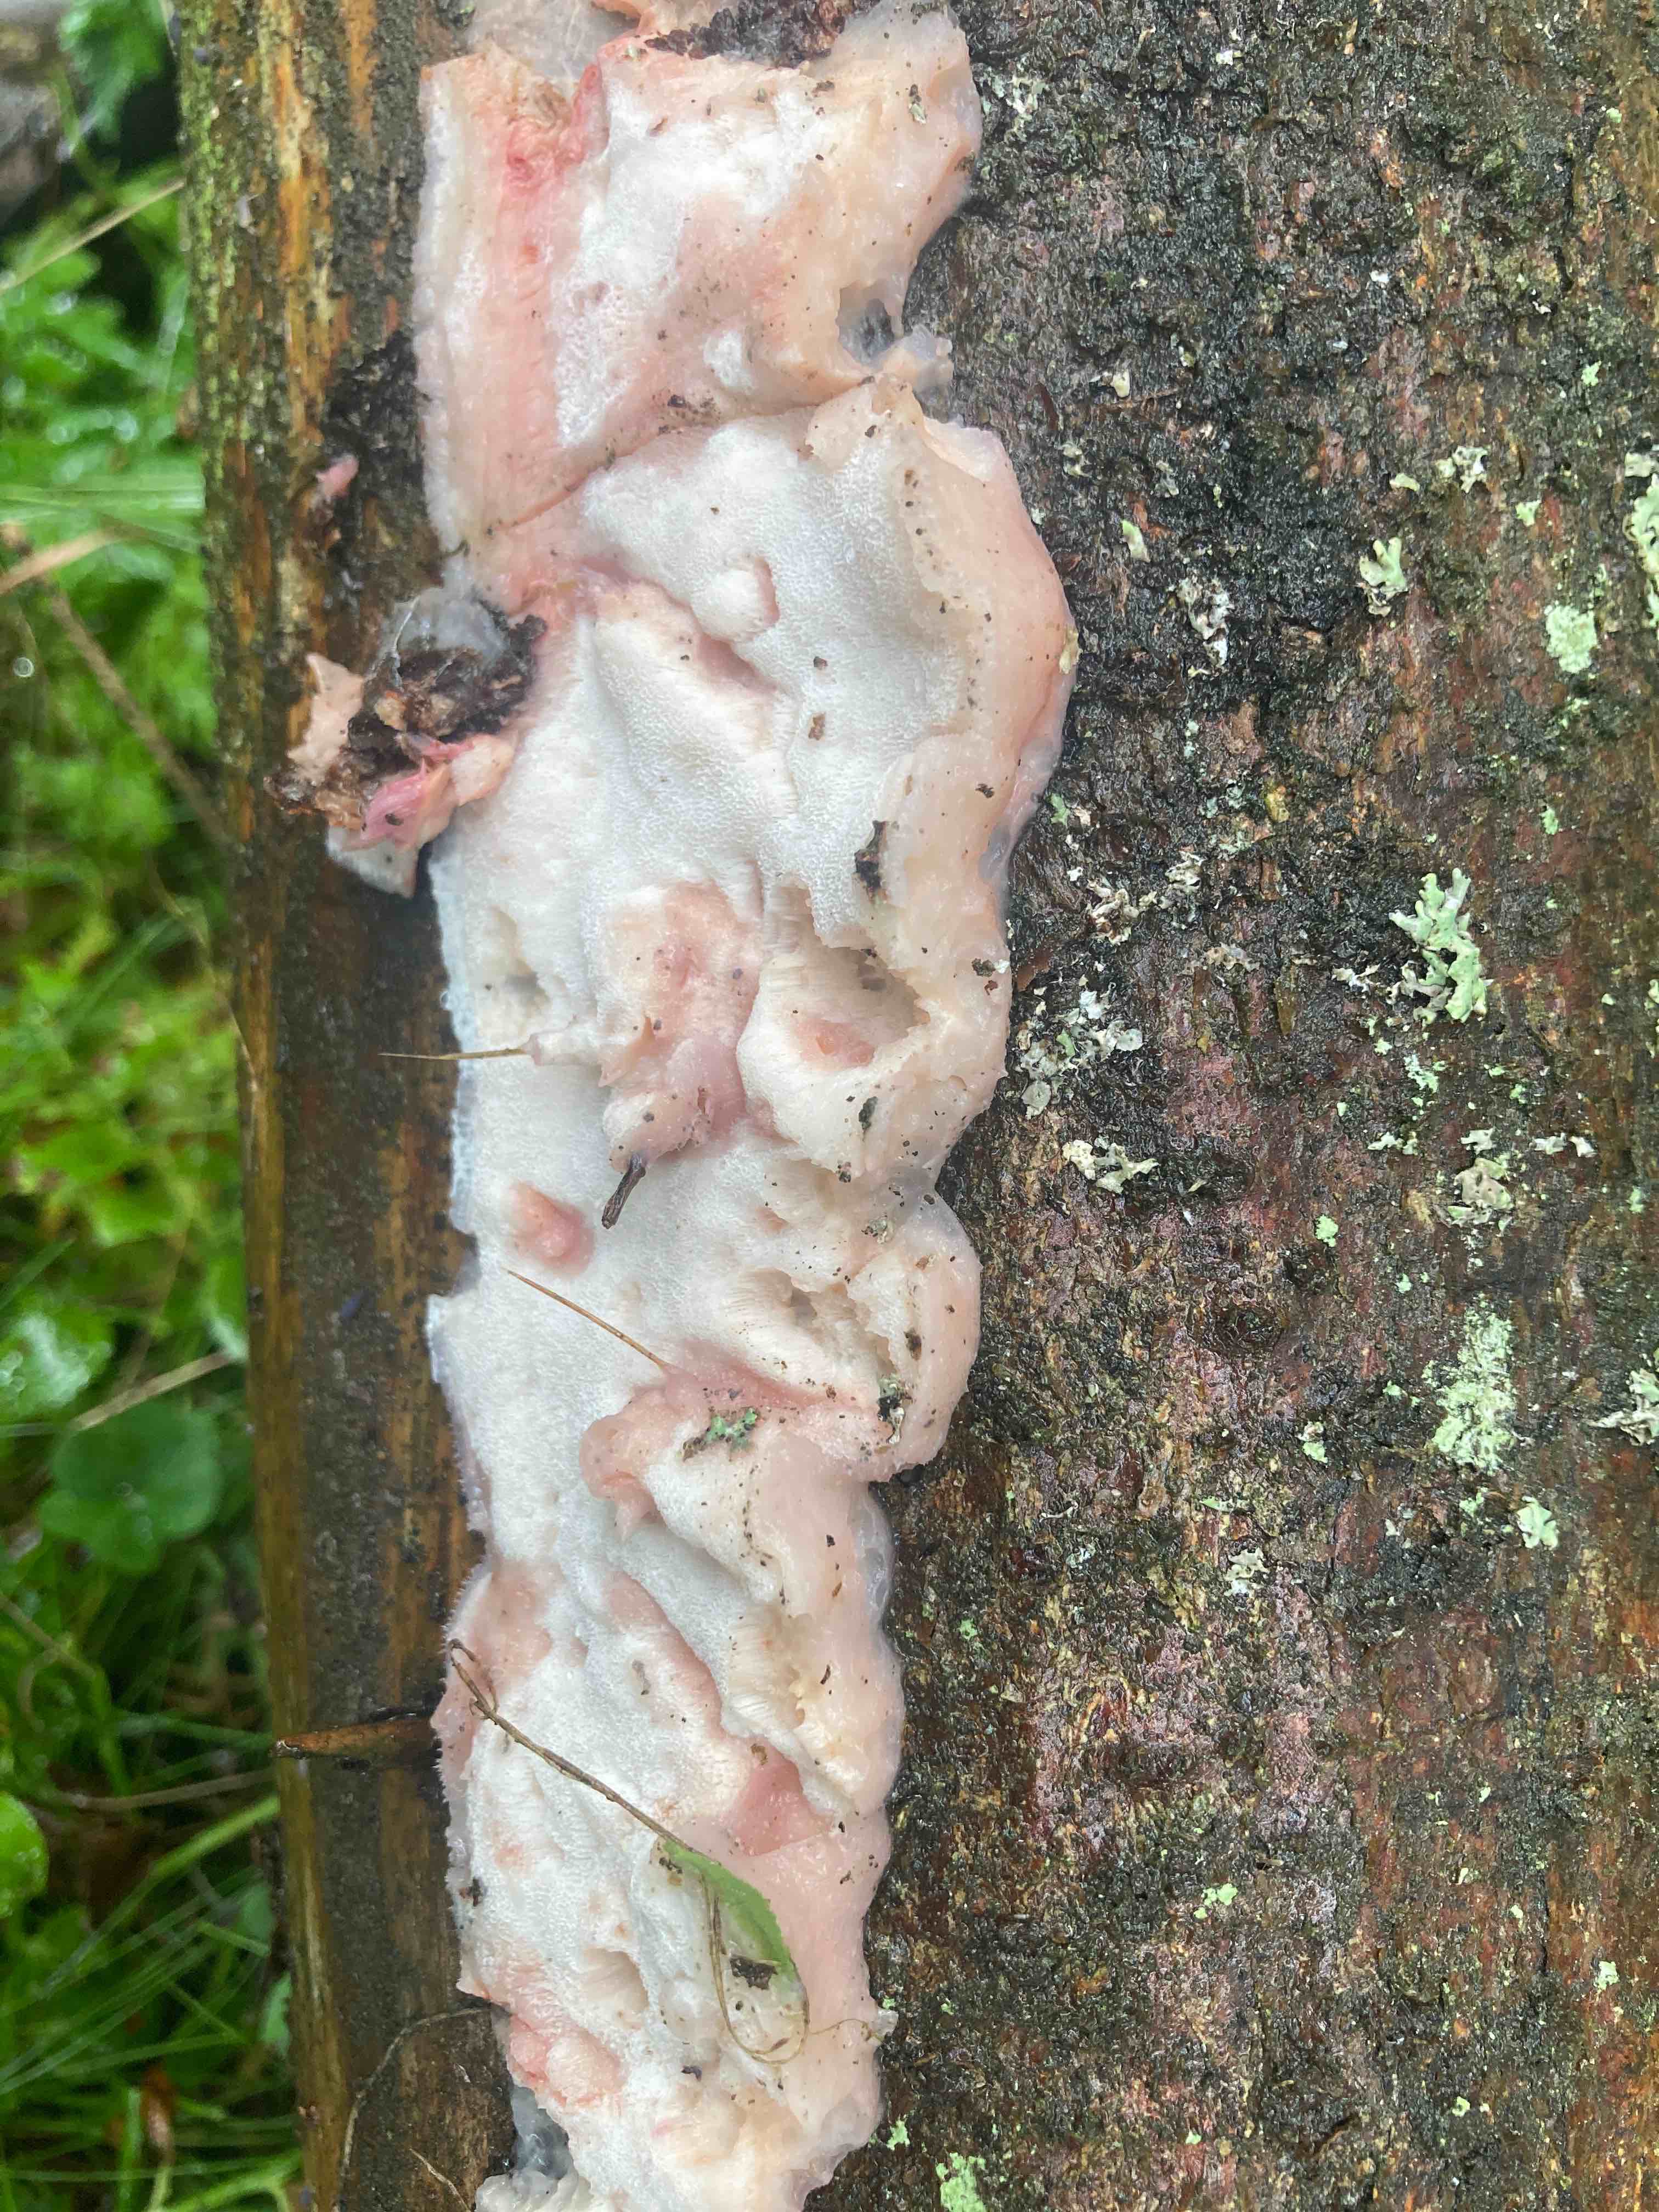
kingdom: Fungi
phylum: Basidiomycota
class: Agaricomycetes
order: Polyporales
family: Irpicaceae
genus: Leptoporus
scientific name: Leptoporus mollis
